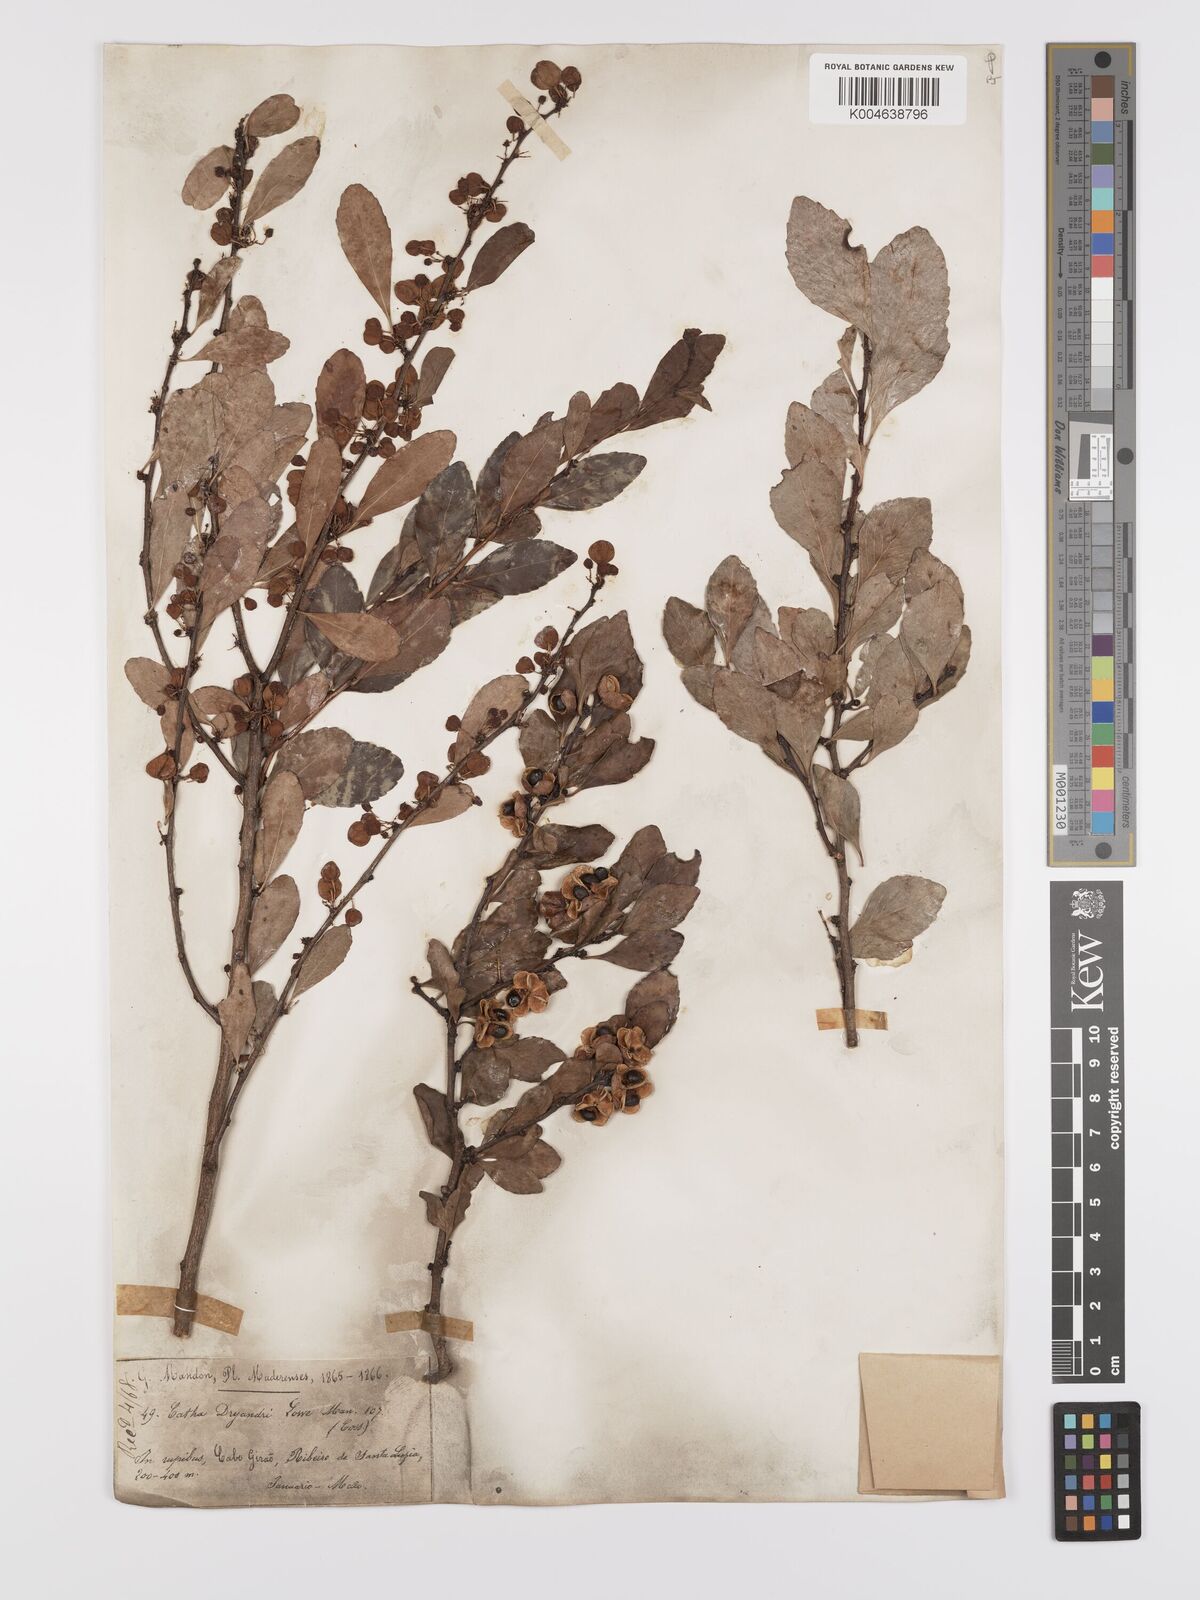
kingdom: Plantae
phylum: Tracheophyta
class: Magnoliopsida
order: Celastrales
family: Celastraceae
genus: Gymnosporia
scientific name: Gymnosporia
